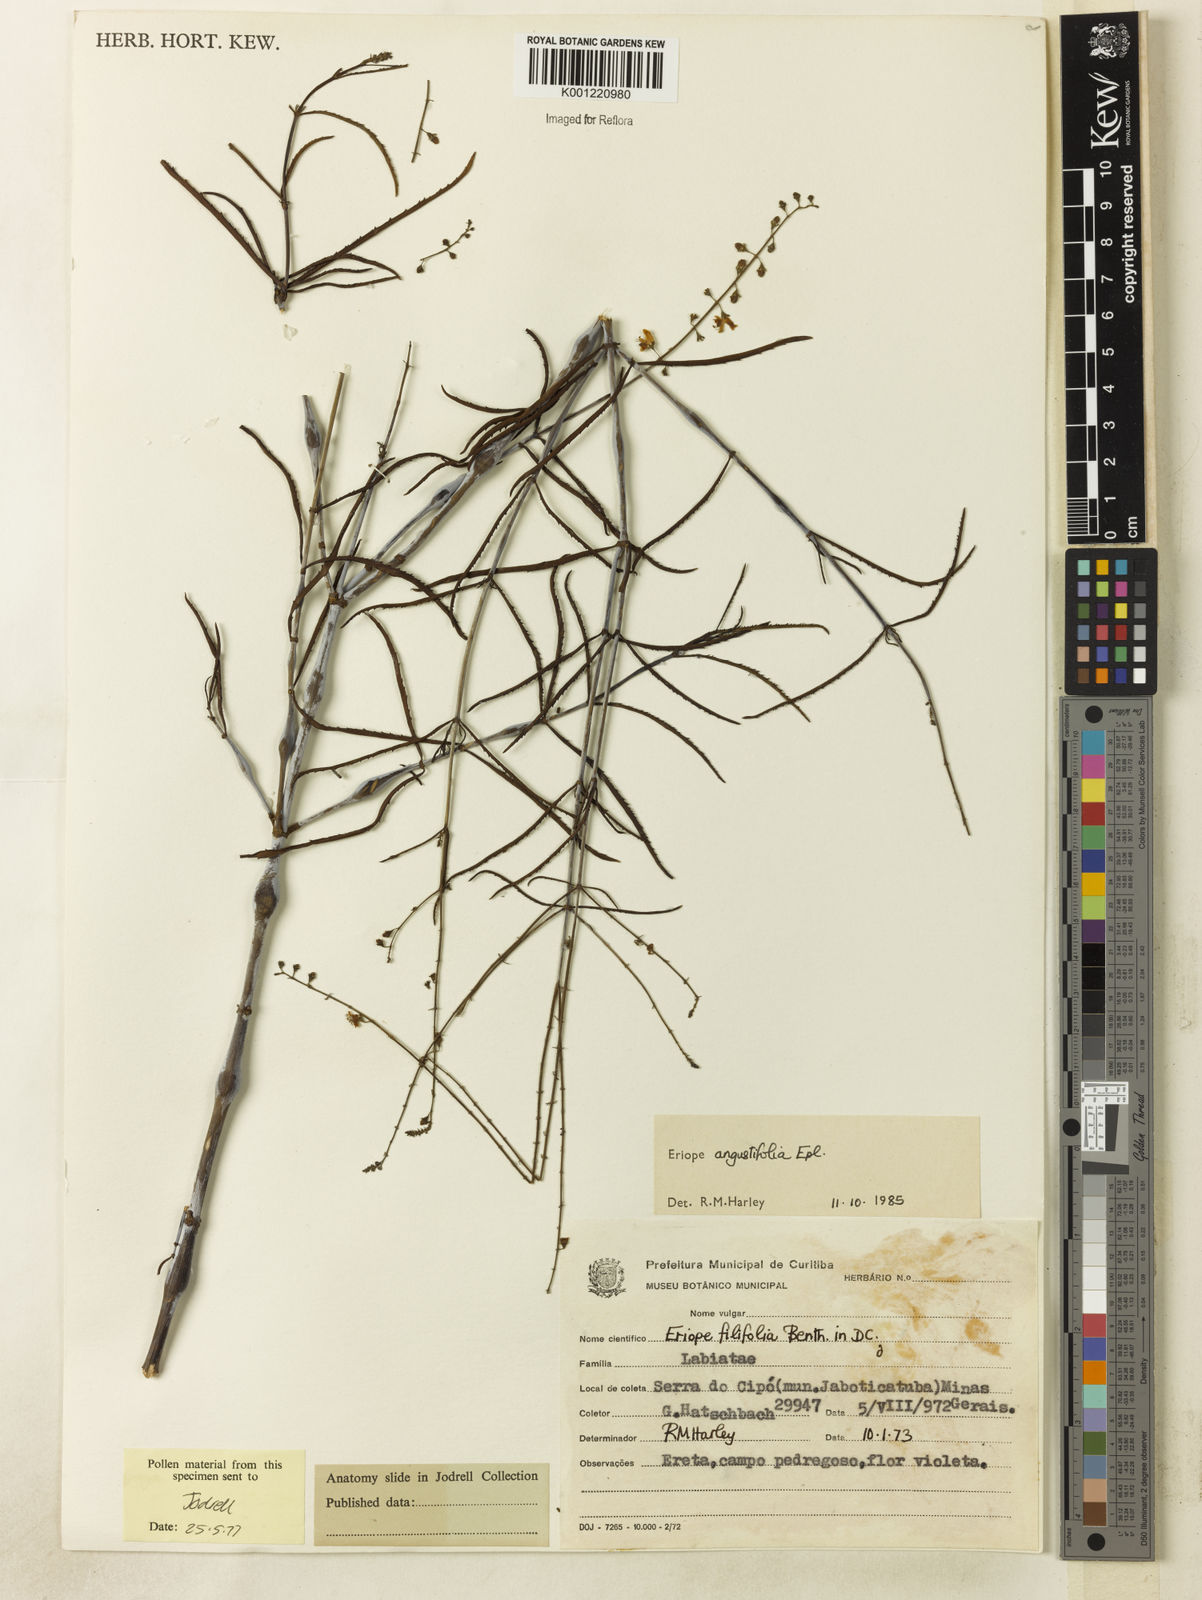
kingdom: Plantae
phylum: Tracheophyta
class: Magnoliopsida
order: Lamiales
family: Lamiaceae
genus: Eriope
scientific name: Eriope angustifolia
